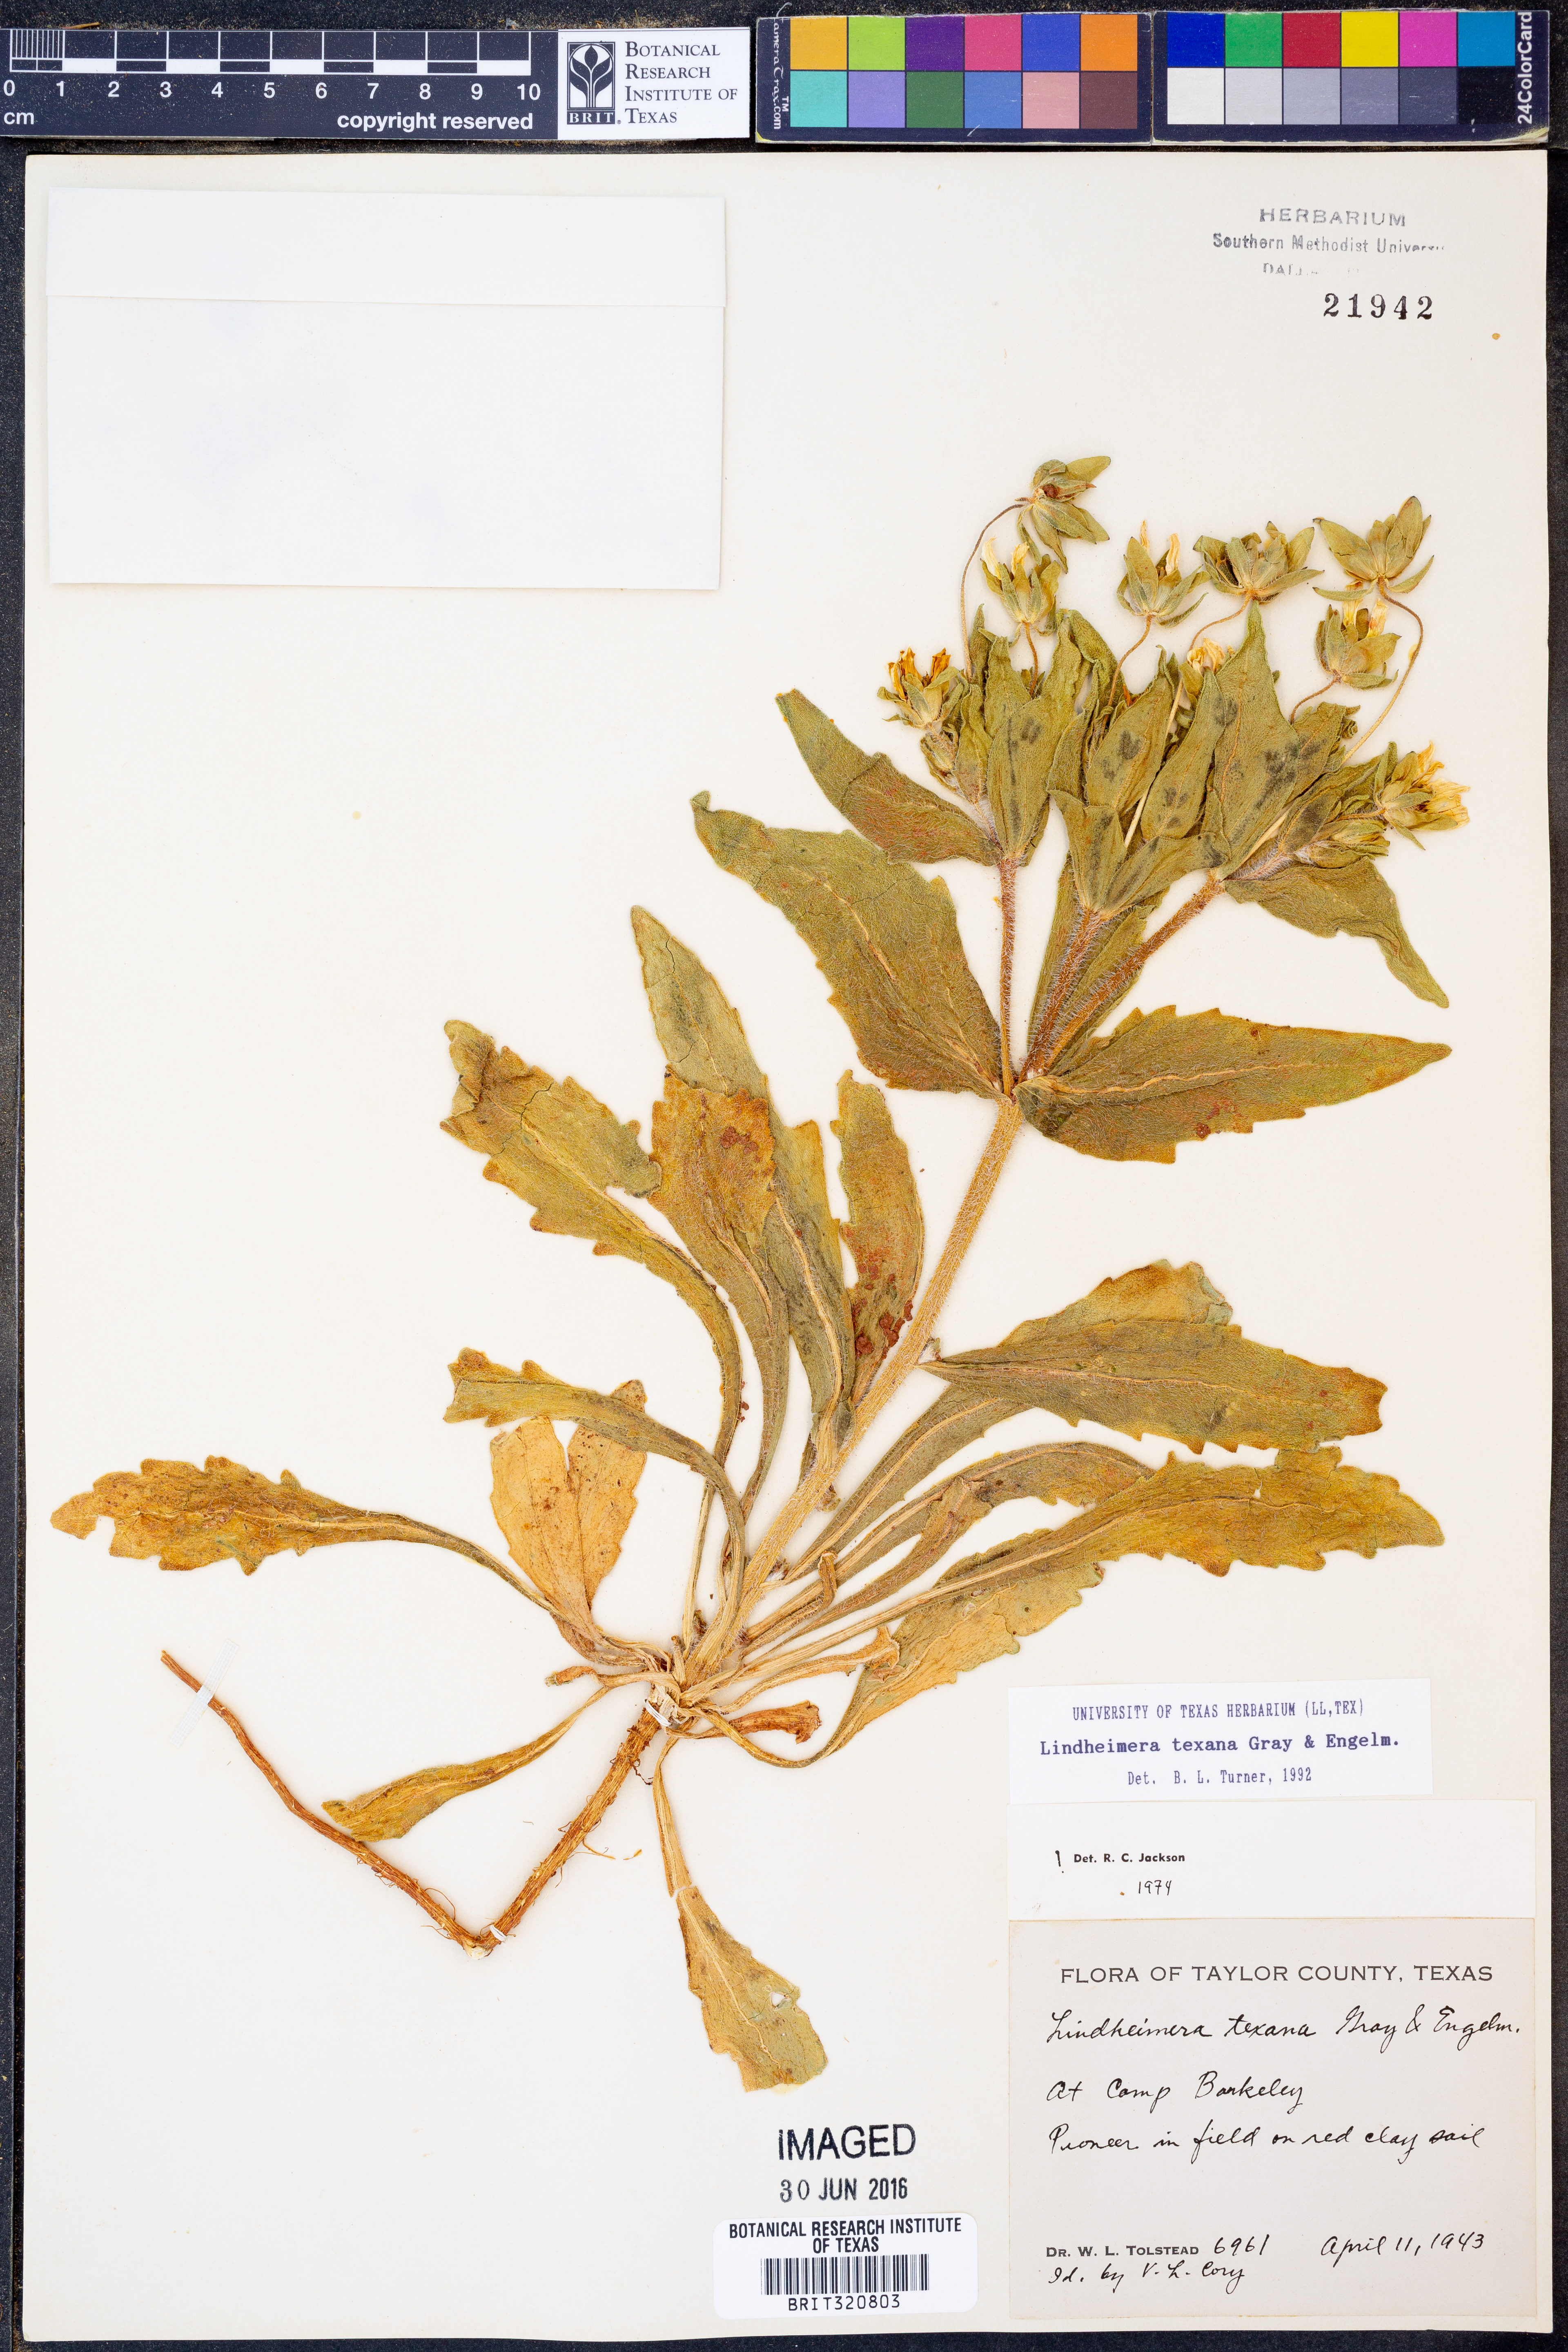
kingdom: Plantae
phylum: Tracheophyta
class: Magnoliopsida
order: Asterales
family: Asteraceae
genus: Lindheimera
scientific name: Lindheimera texana
